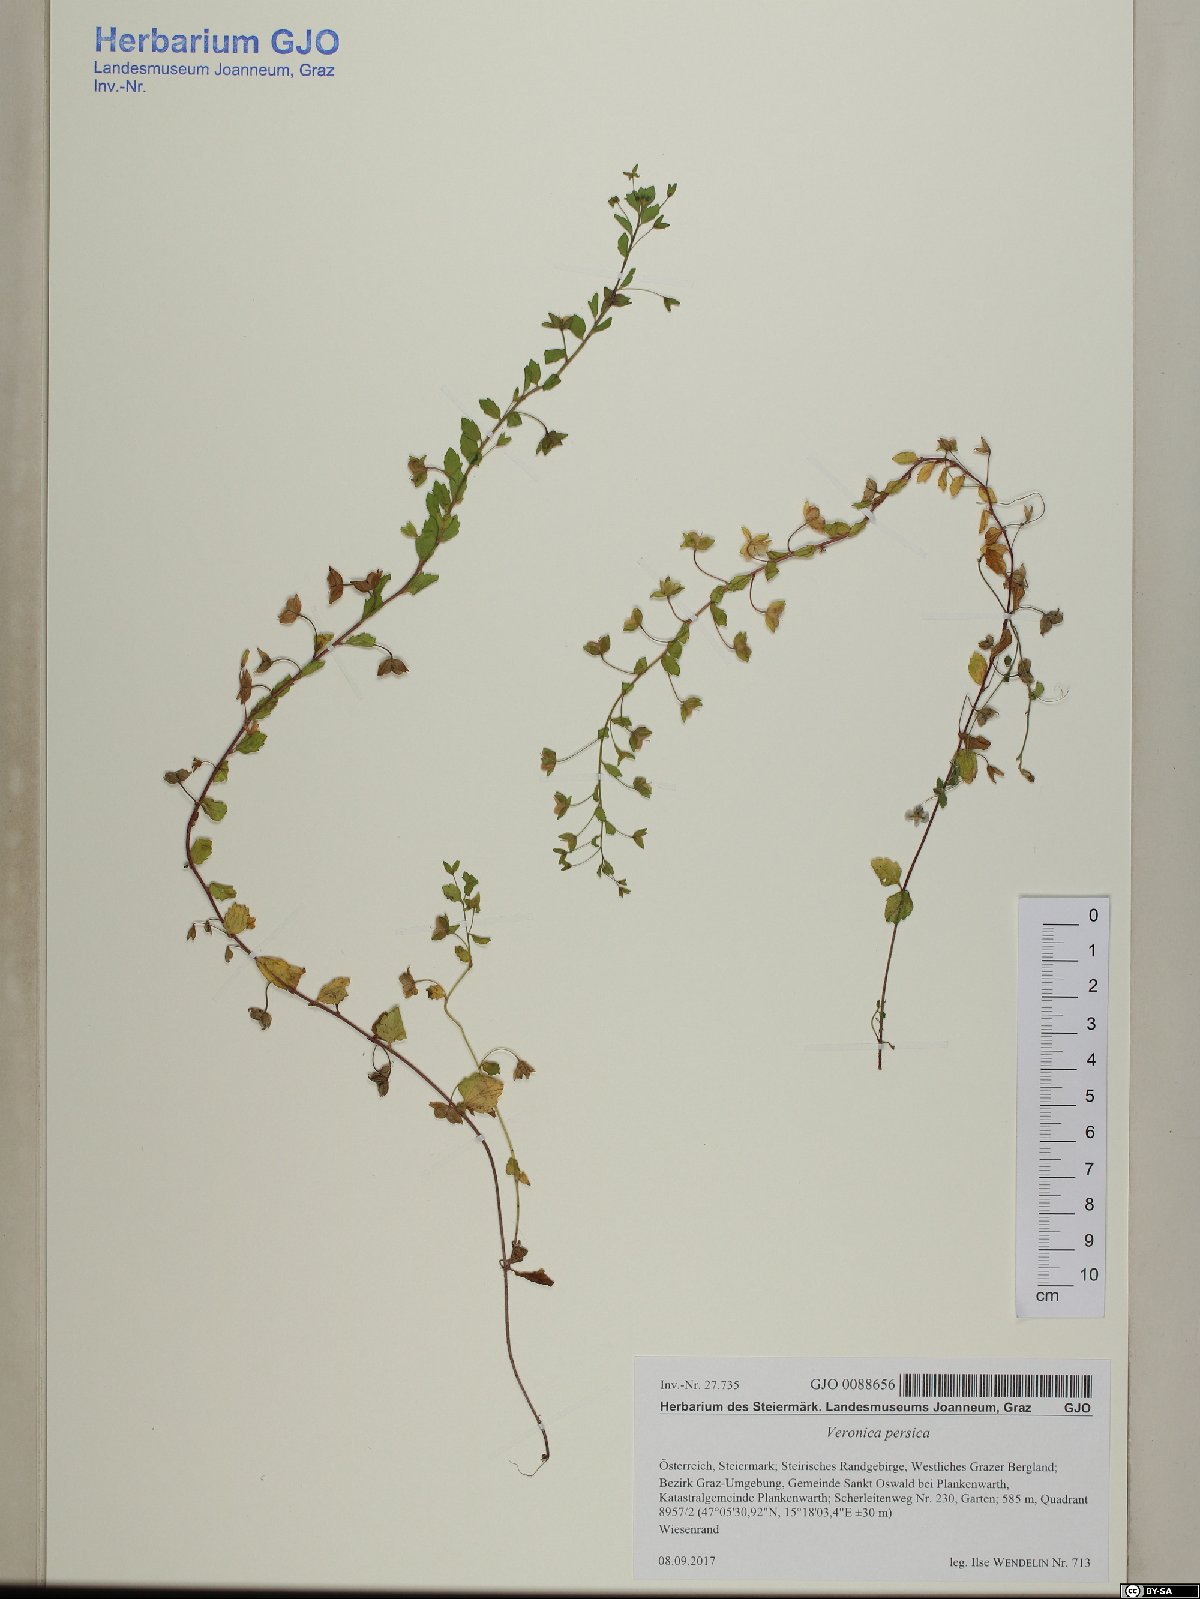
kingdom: Plantae
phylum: Tracheophyta
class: Magnoliopsida
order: Lamiales
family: Plantaginaceae
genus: Veronica
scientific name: Veronica persica
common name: Common field-speedwell
